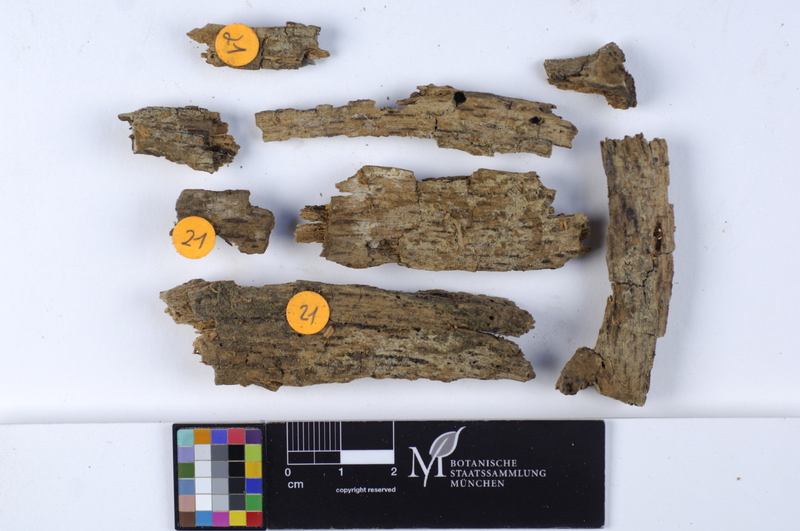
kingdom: Fungi
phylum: Basidiomycota
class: Agaricomycetes
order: Cantharellales
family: Botryobasidiaceae
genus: Botryobasidium
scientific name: Botryobasidium candicans
